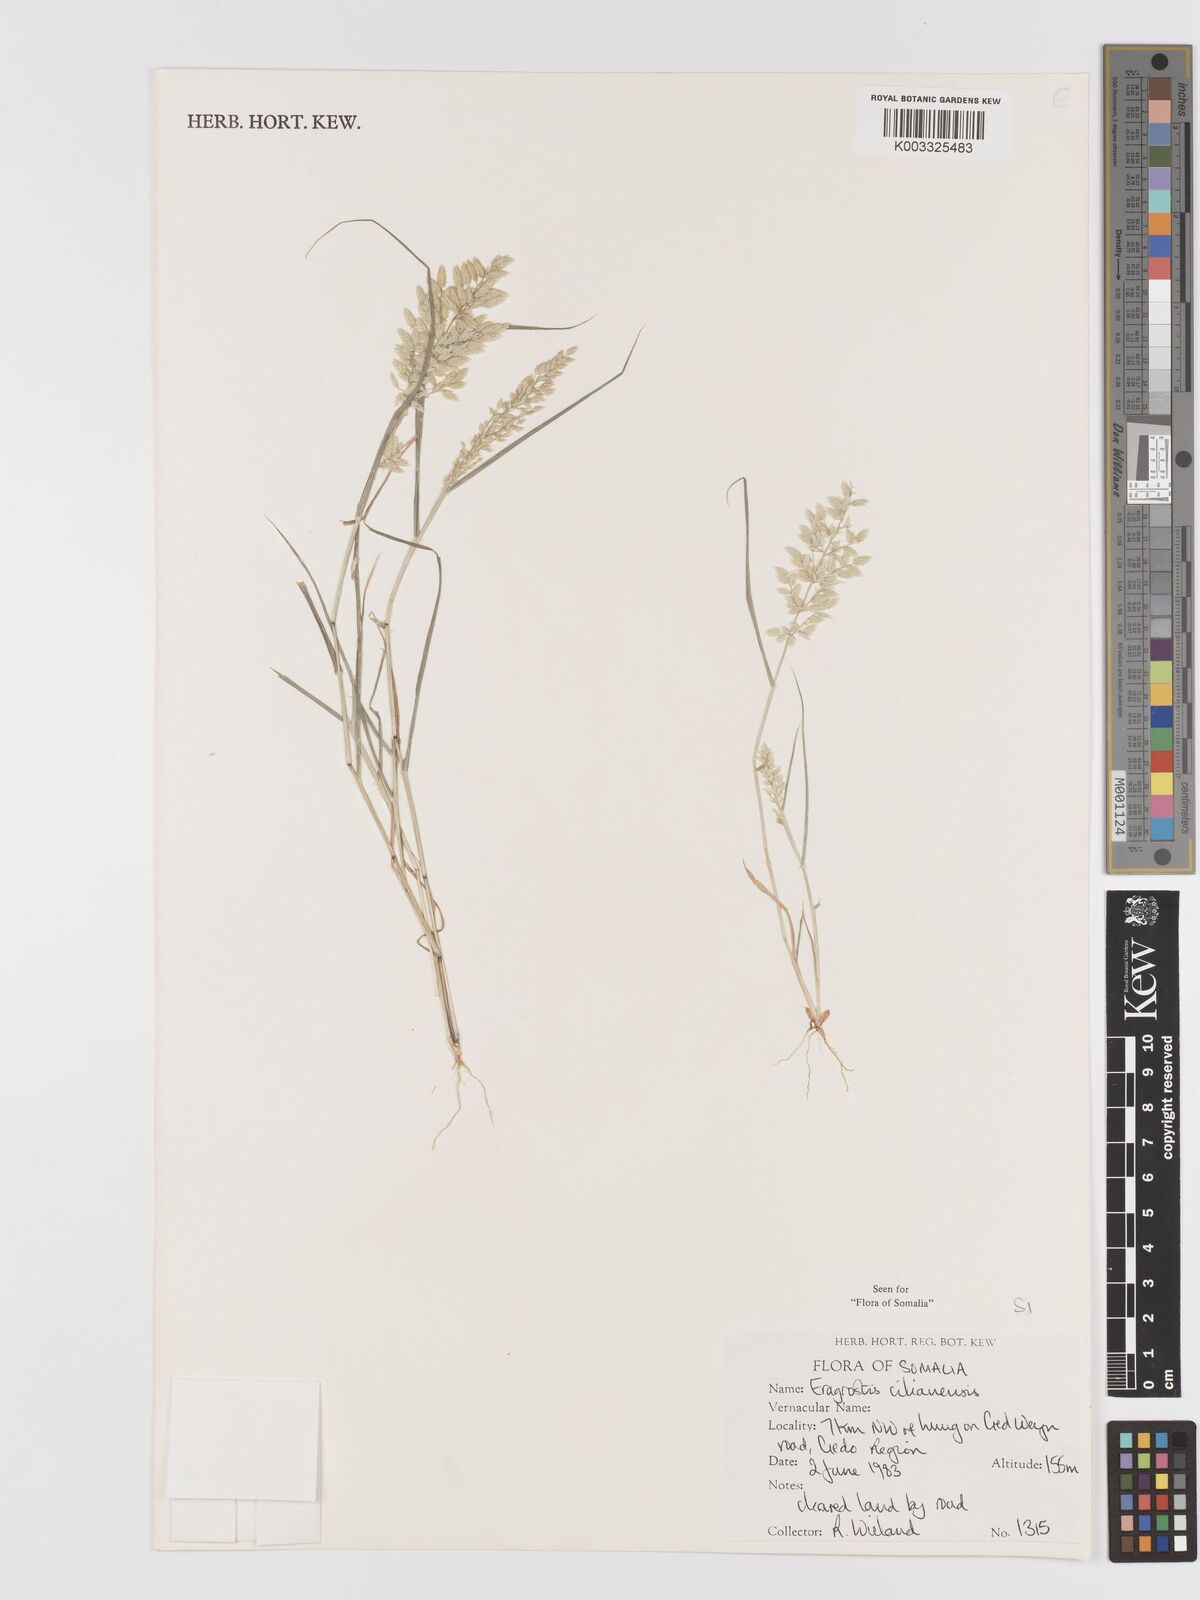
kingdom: Plantae
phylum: Tracheophyta
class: Liliopsida
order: Poales
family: Poaceae
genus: Eragrostis
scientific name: Eragrostis cilianensis
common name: Stinkgrass
